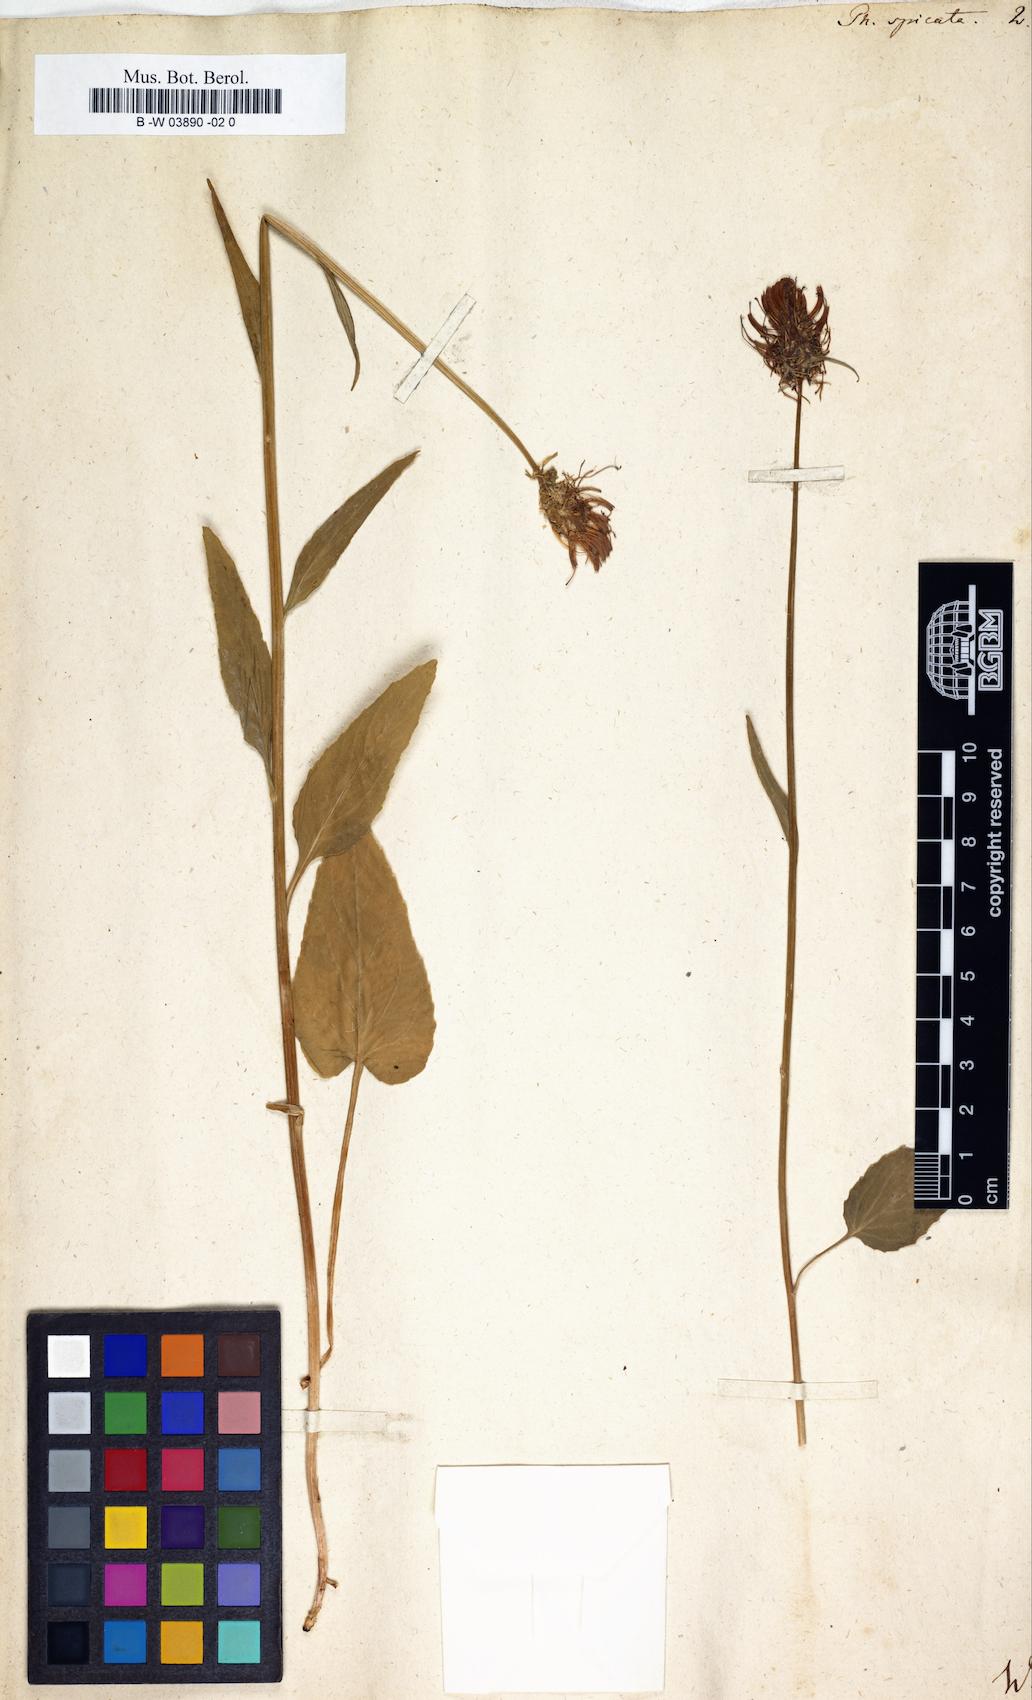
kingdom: Plantae
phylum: Tracheophyta
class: Magnoliopsida
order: Asterales
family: Campanulaceae
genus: Phyteuma
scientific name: Phyteuma spicatum
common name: Spiked rampion
